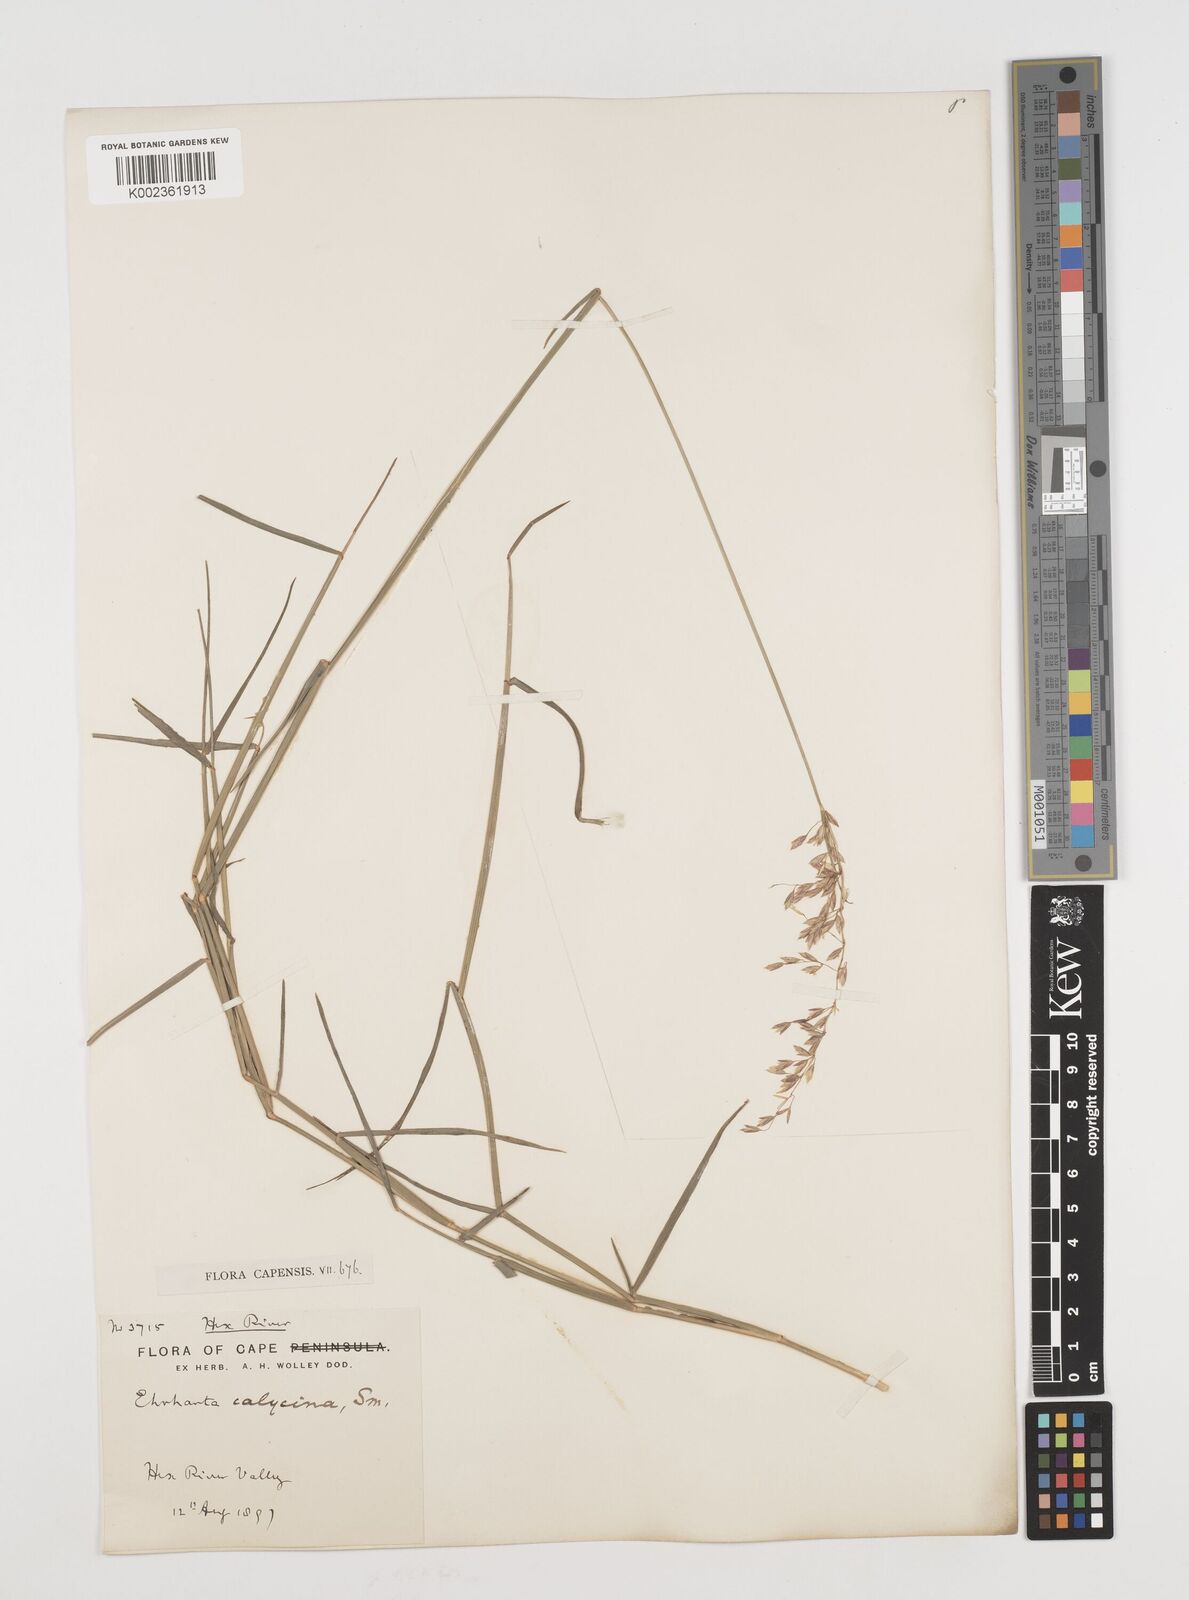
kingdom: Plantae
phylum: Tracheophyta
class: Liliopsida
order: Poales
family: Poaceae
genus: Ehrharta
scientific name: Ehrharta calycina
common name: Perennial veldtgrass
